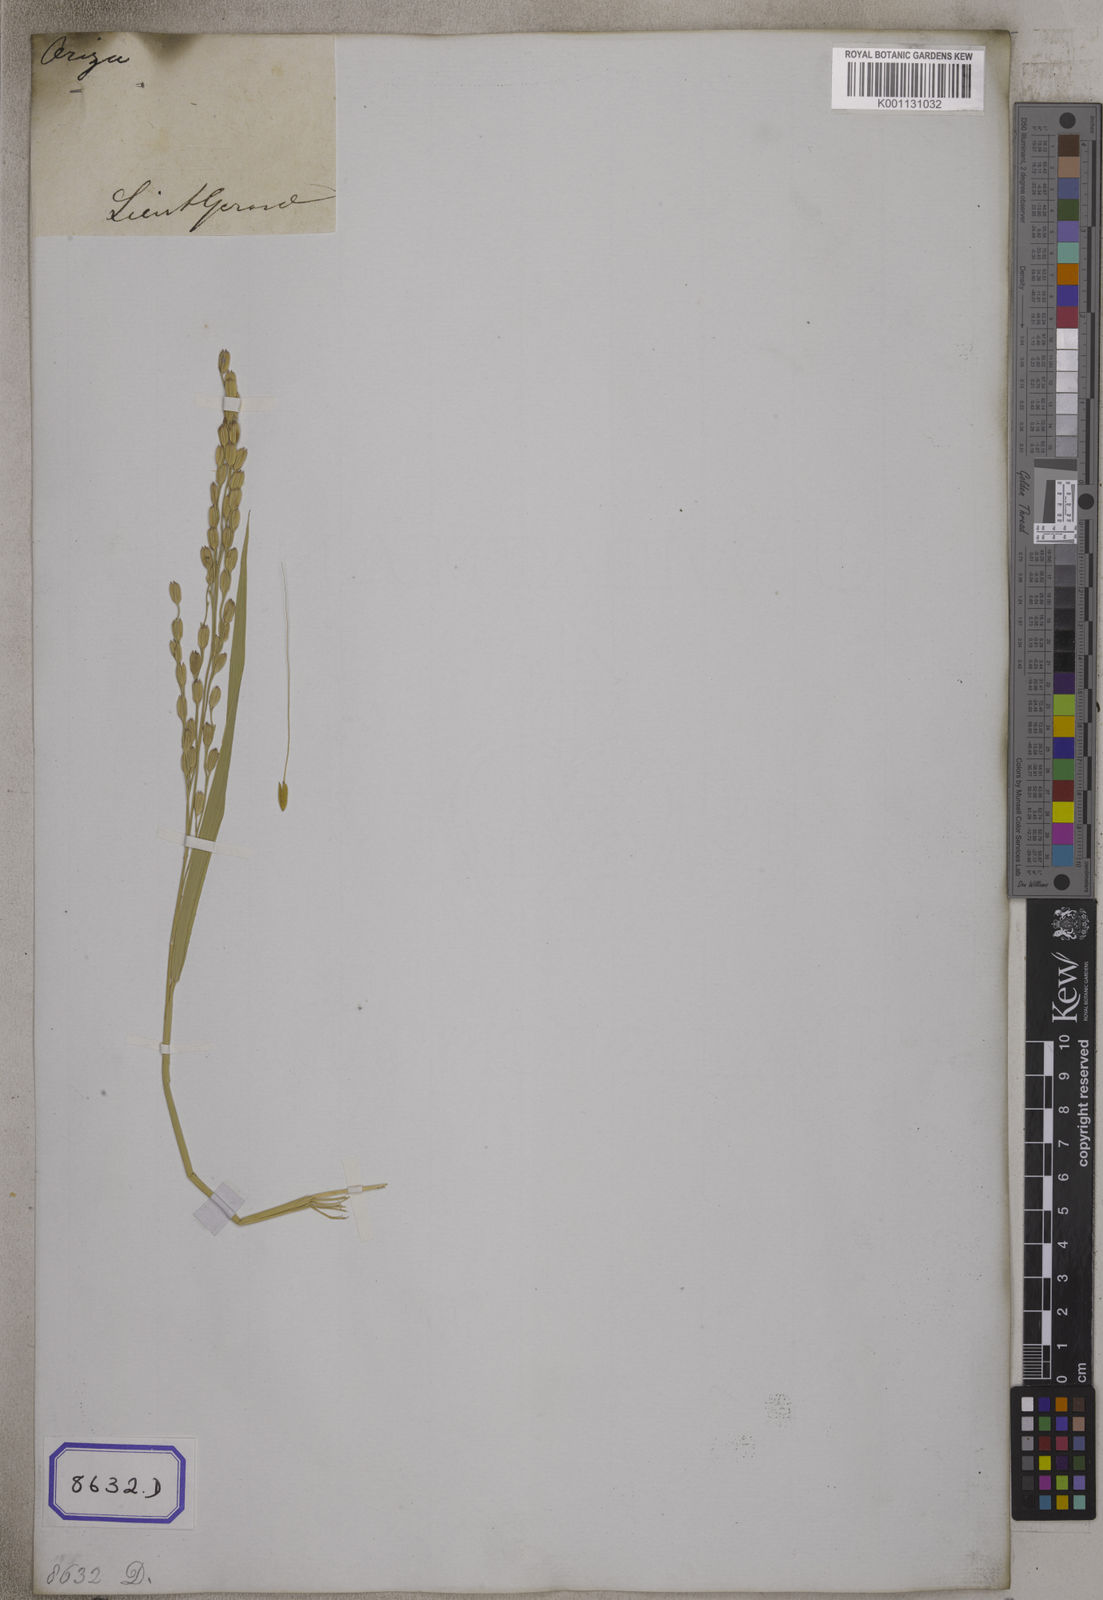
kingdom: Plantae
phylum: Tracheophyta
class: Liliopsida
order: Poales
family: Poaceae
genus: Oryza
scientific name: Oryza sativa
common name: Rice
